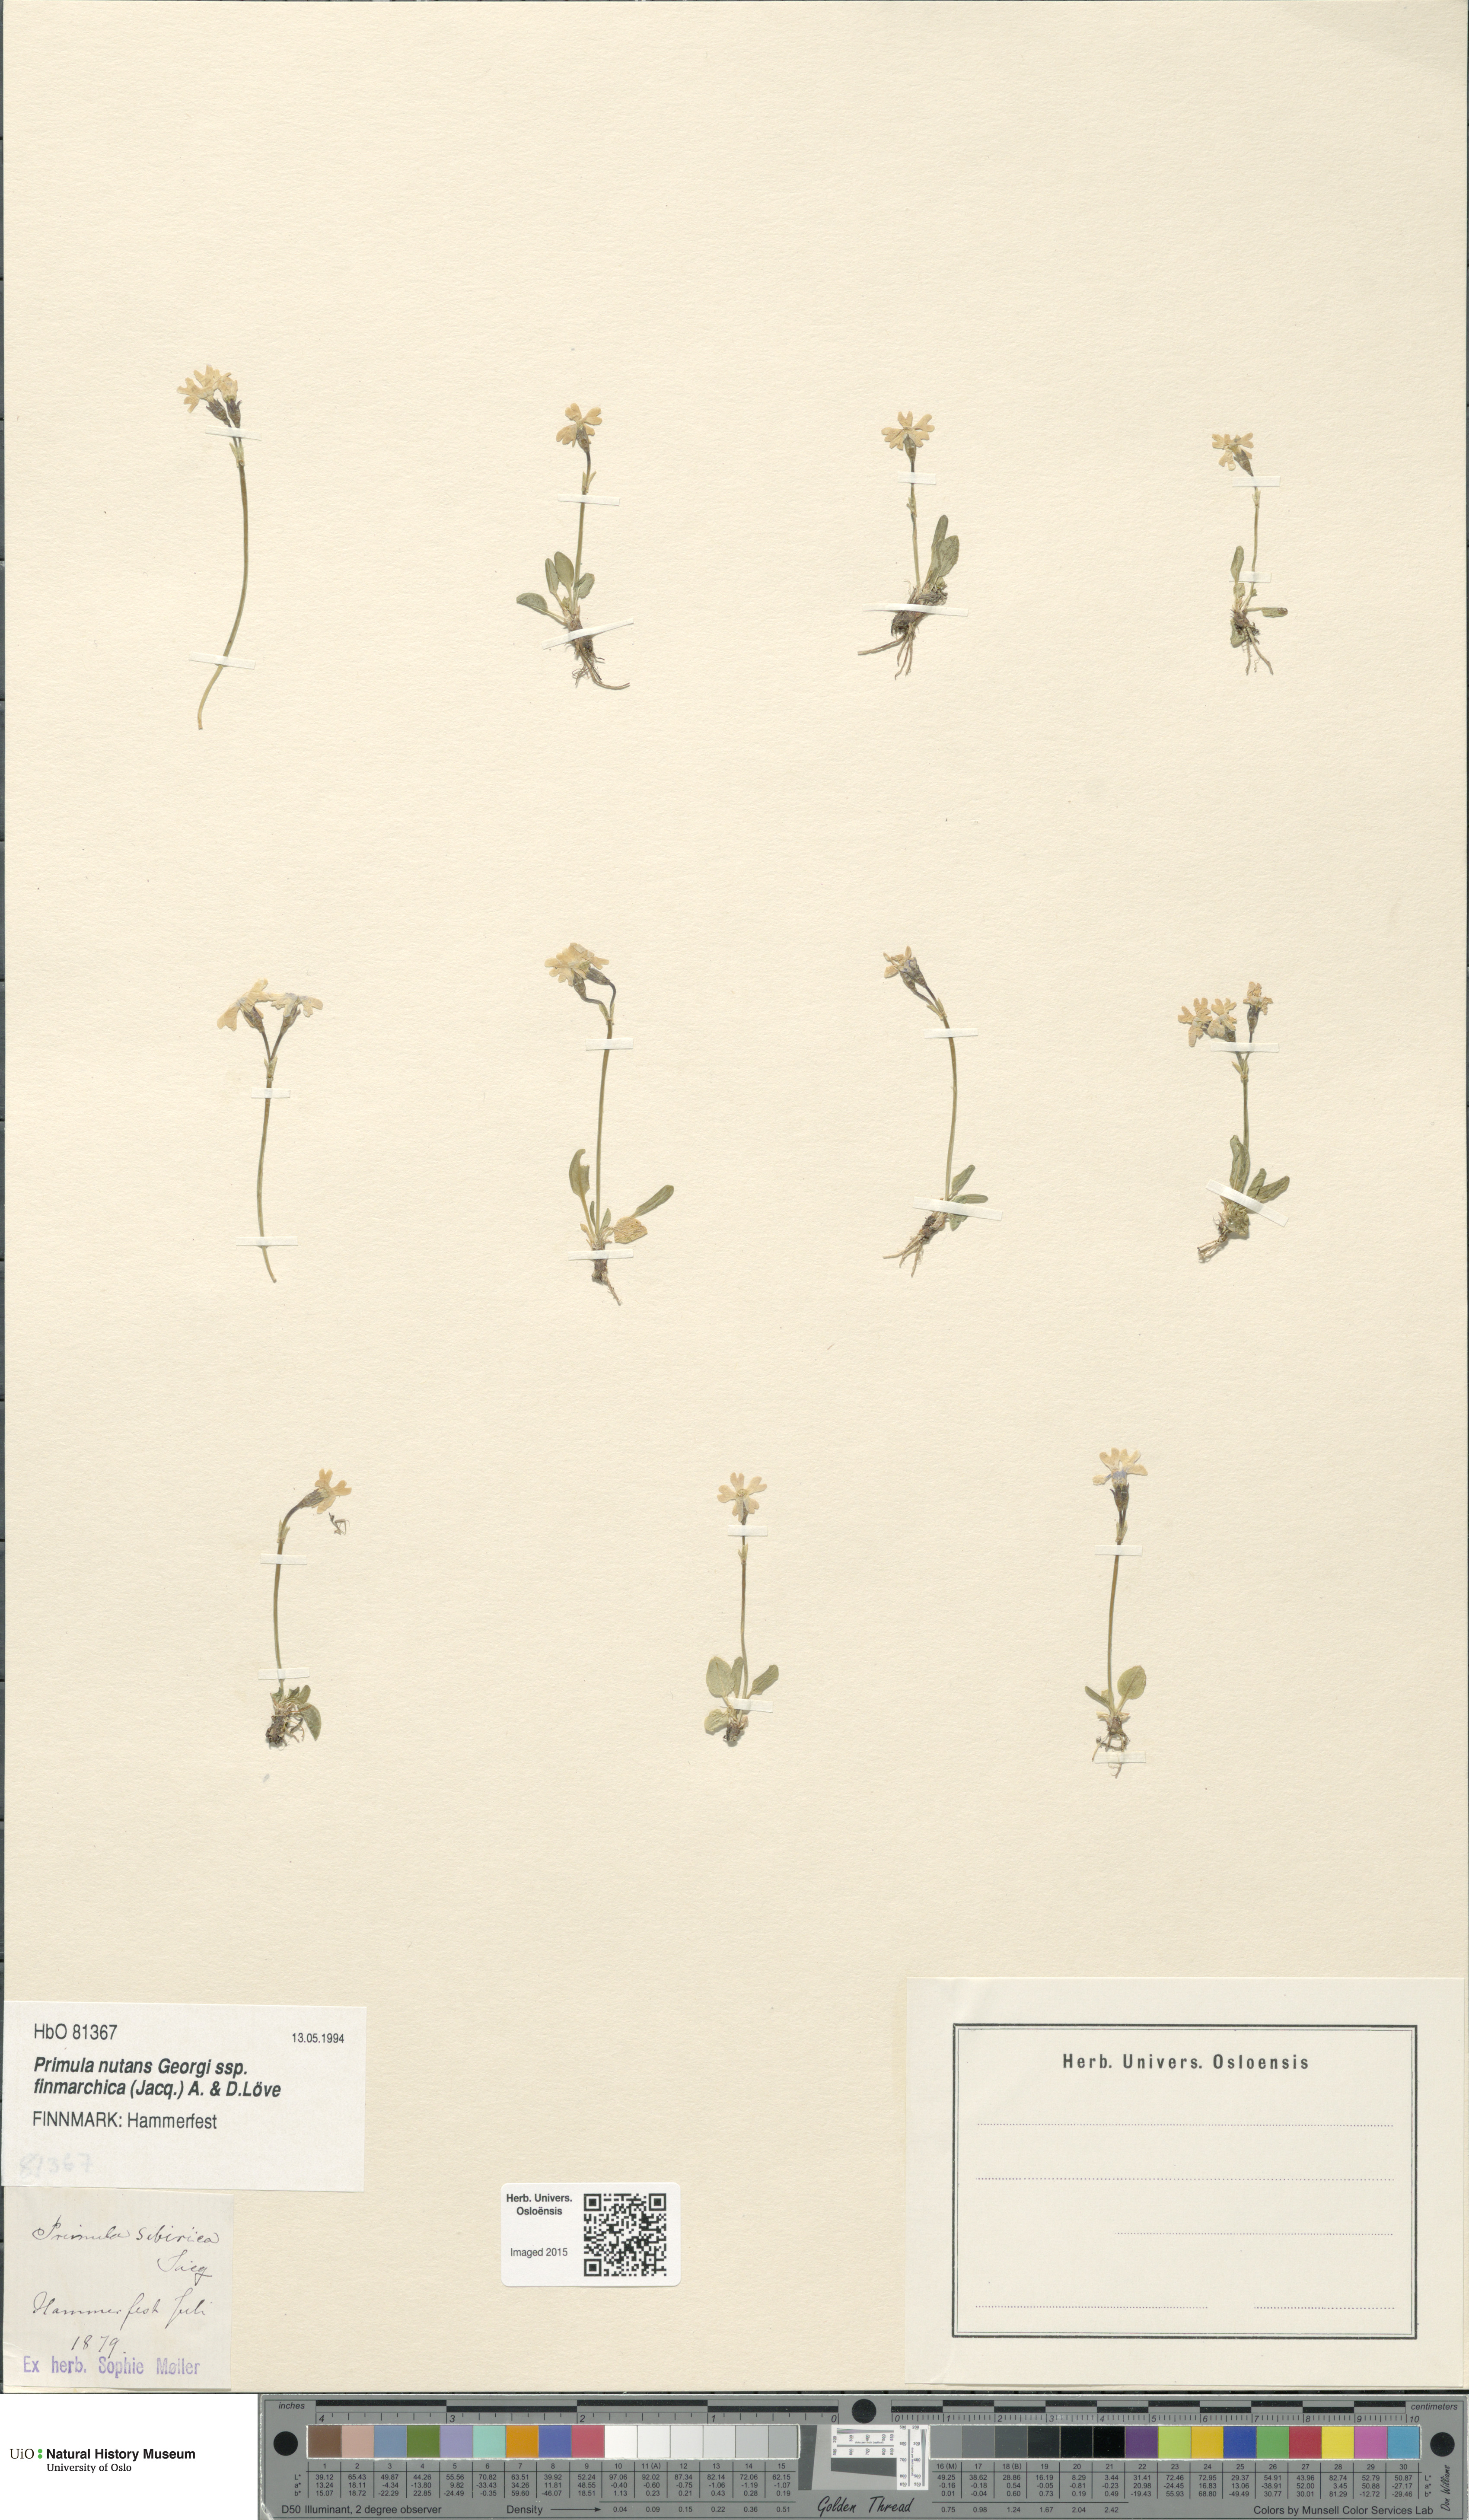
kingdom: Plantae
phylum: Tracheophyta
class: Magnoliopsida
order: Ericales
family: Primulaceae
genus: Primula
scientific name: Primula nutans
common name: Siberian primrose
